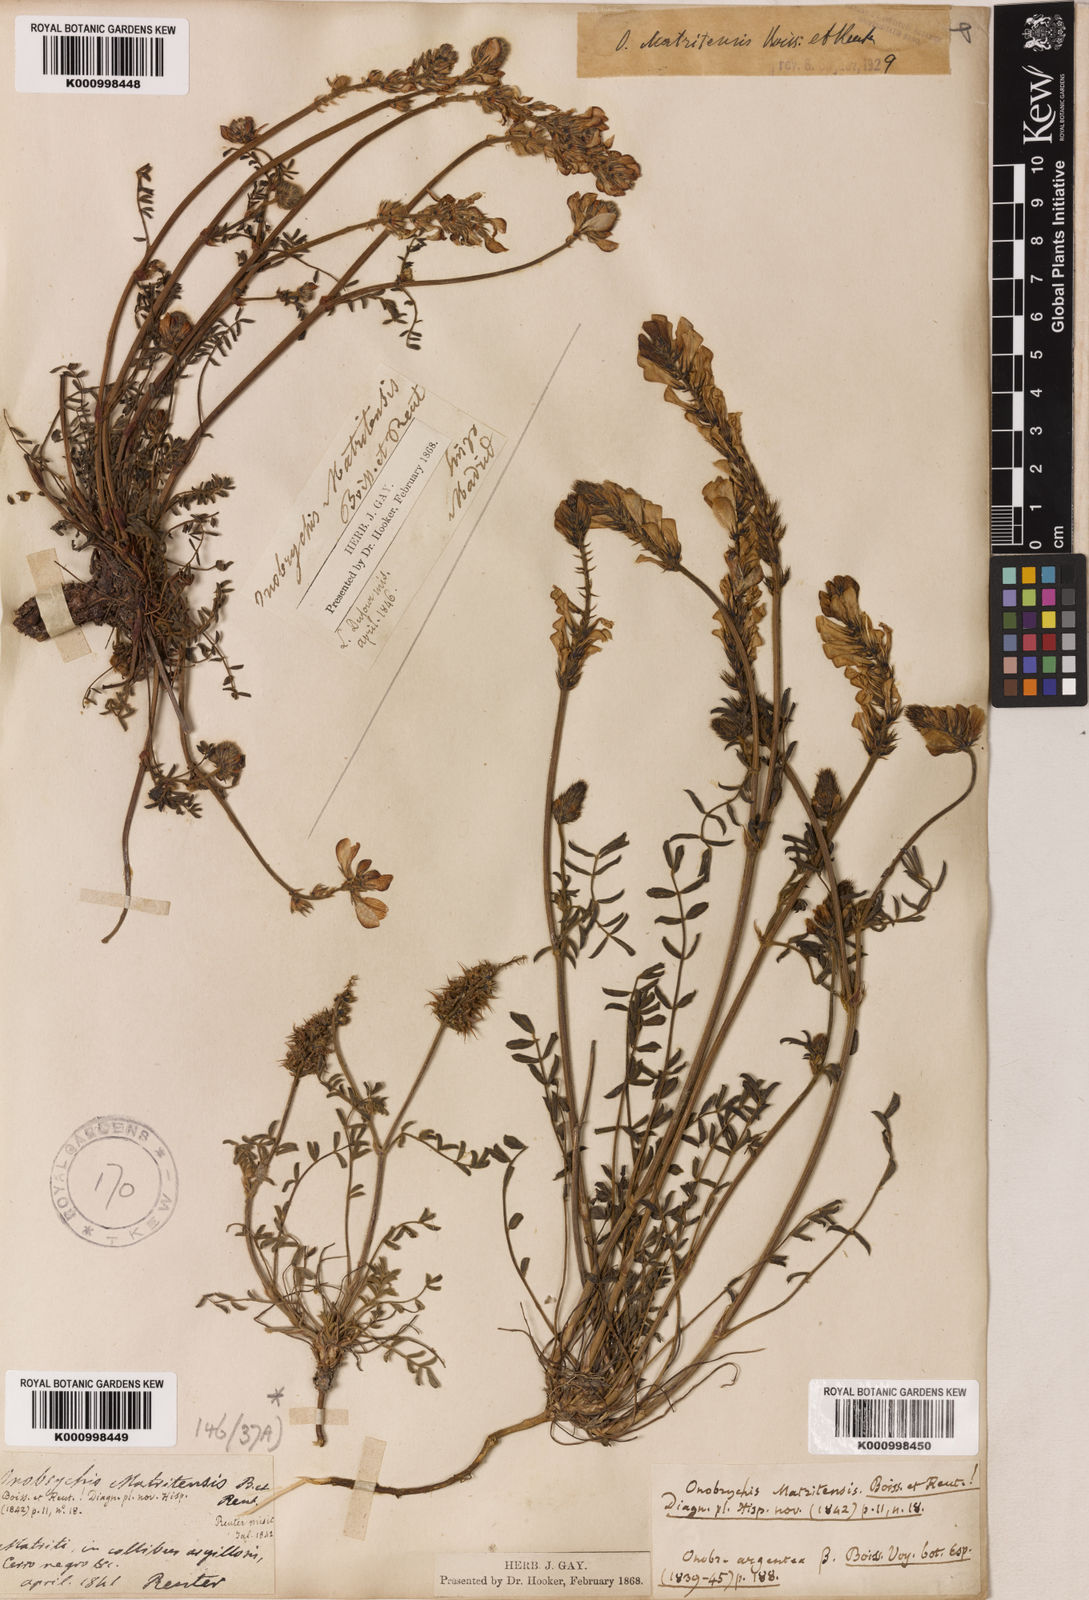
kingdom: Plantae
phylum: Tracheophyta
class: Magnoliopsida
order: Fabales
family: Fabaceae
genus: Onobrychis
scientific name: Onobrychis humilis
